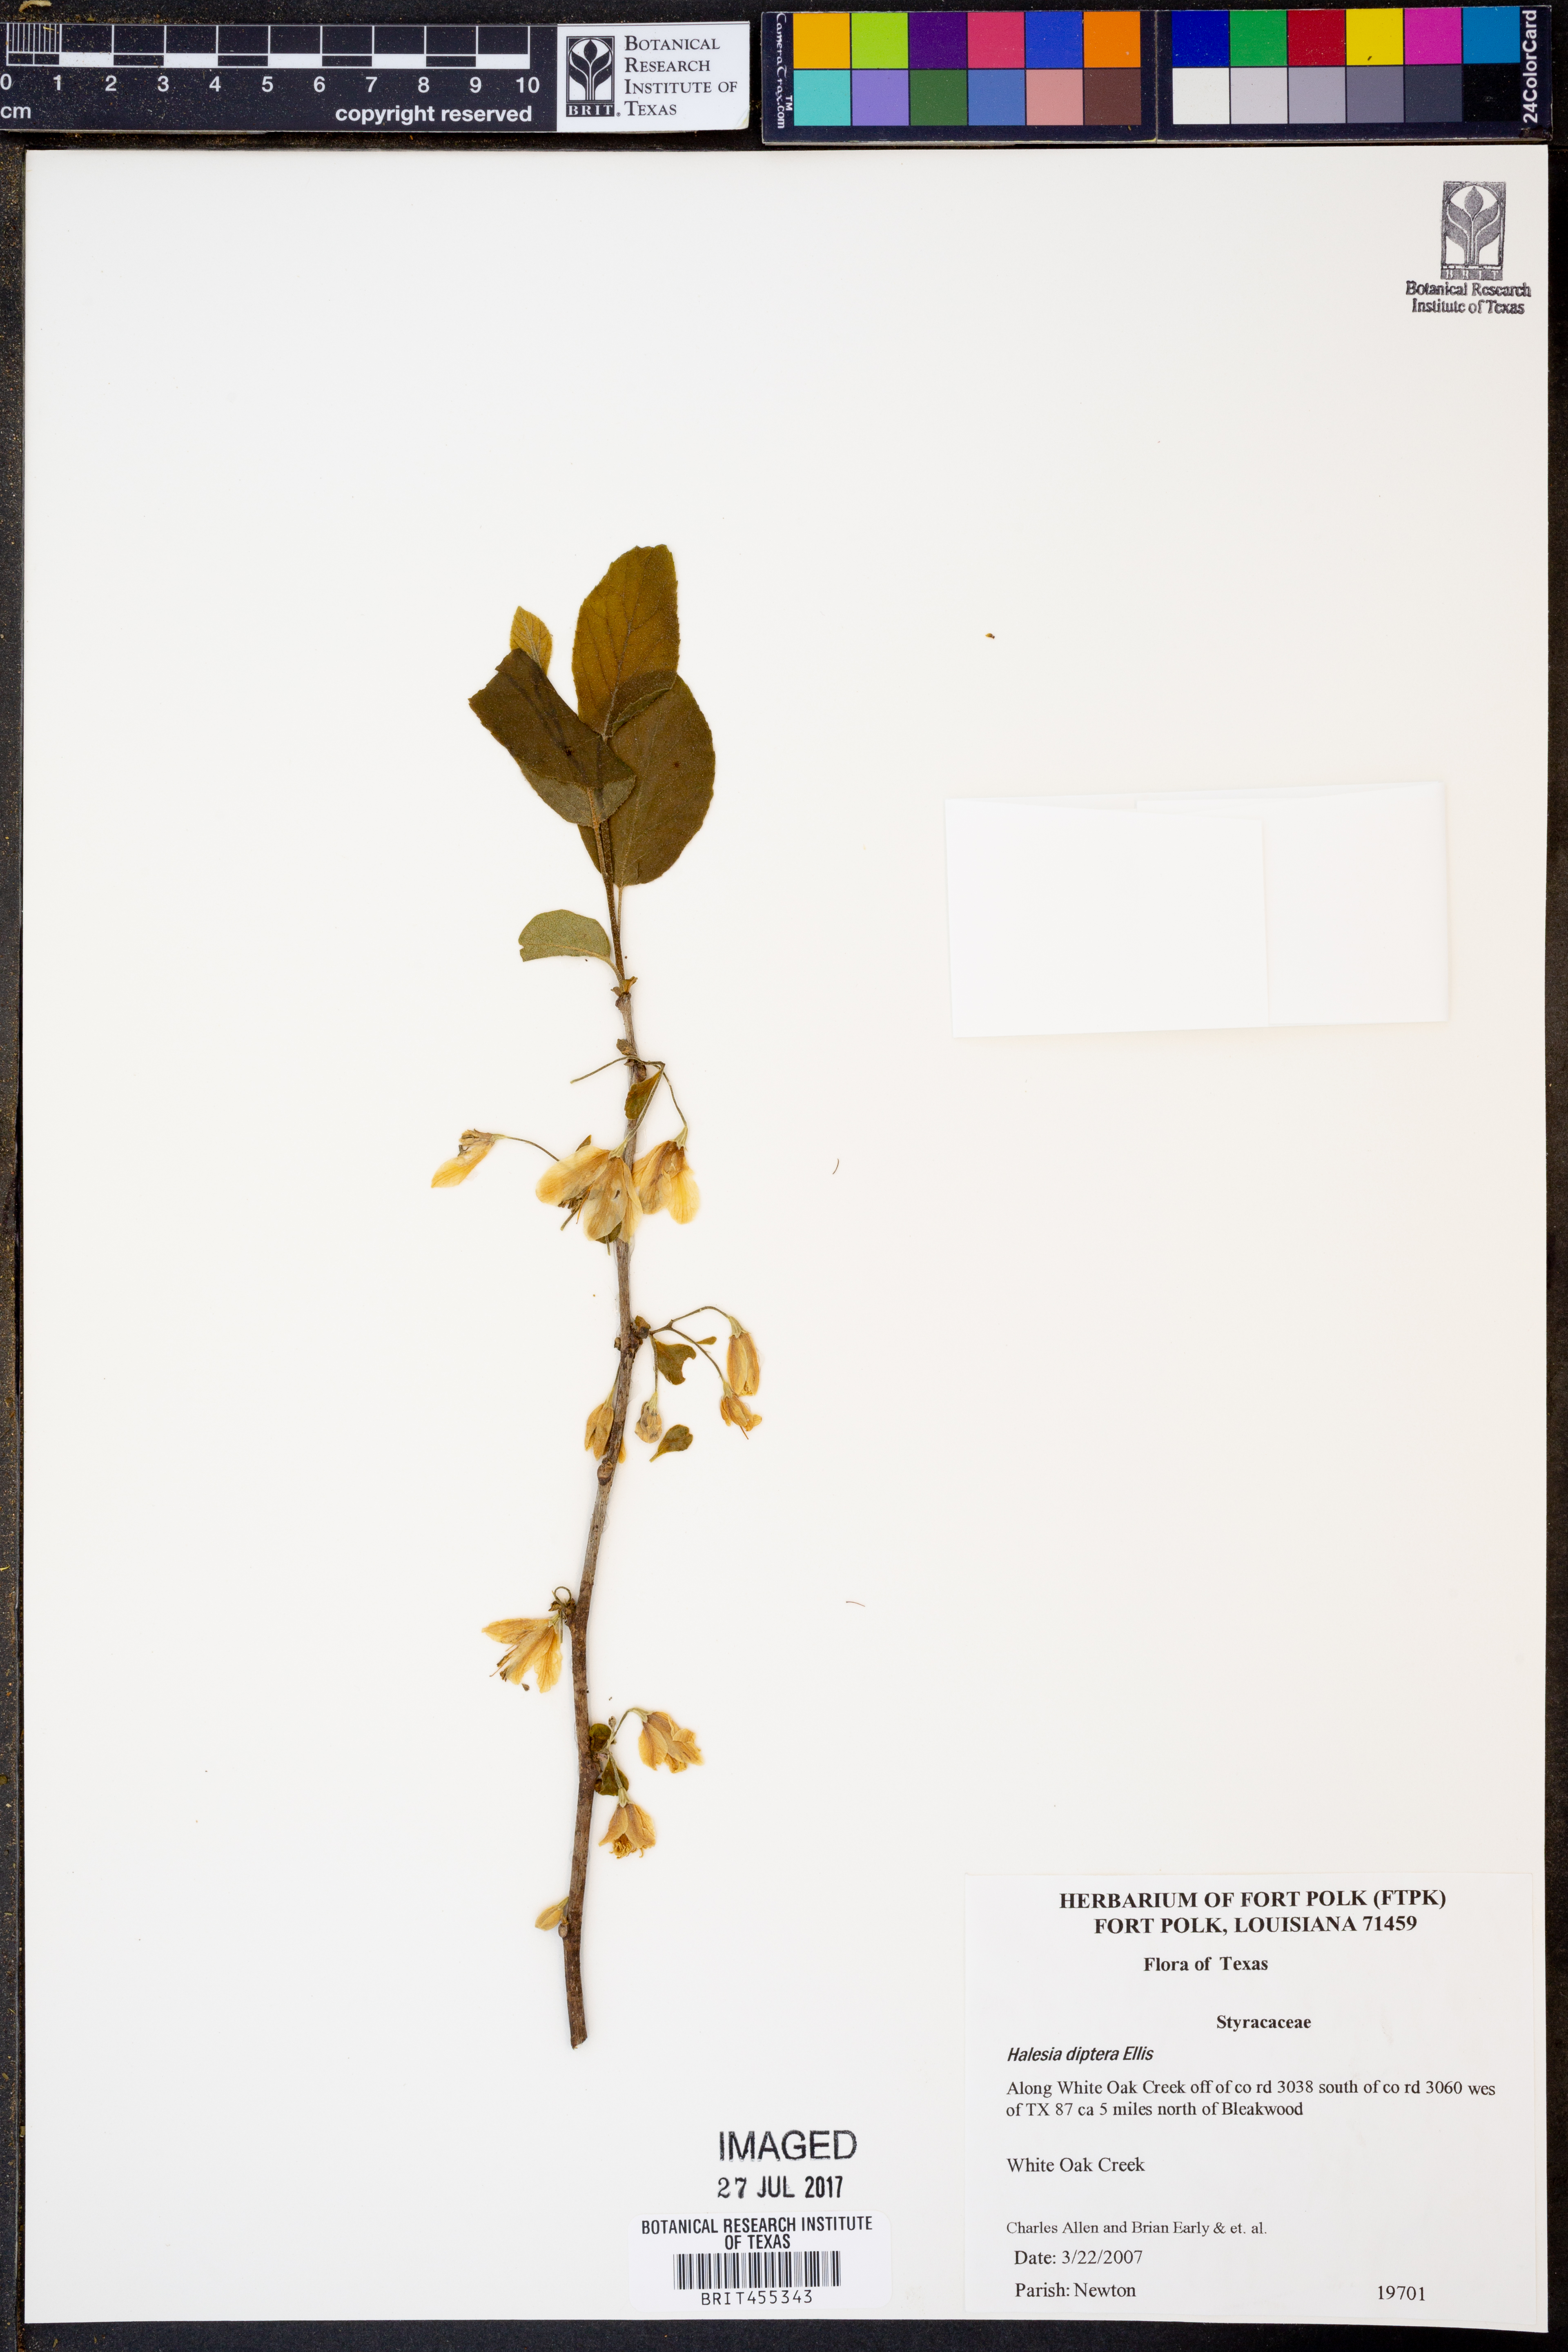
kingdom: Plantae
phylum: Tracheophyta
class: Magnoliopsida
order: Ericales
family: Styracaceae
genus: Halesia
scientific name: Halesia diptera
